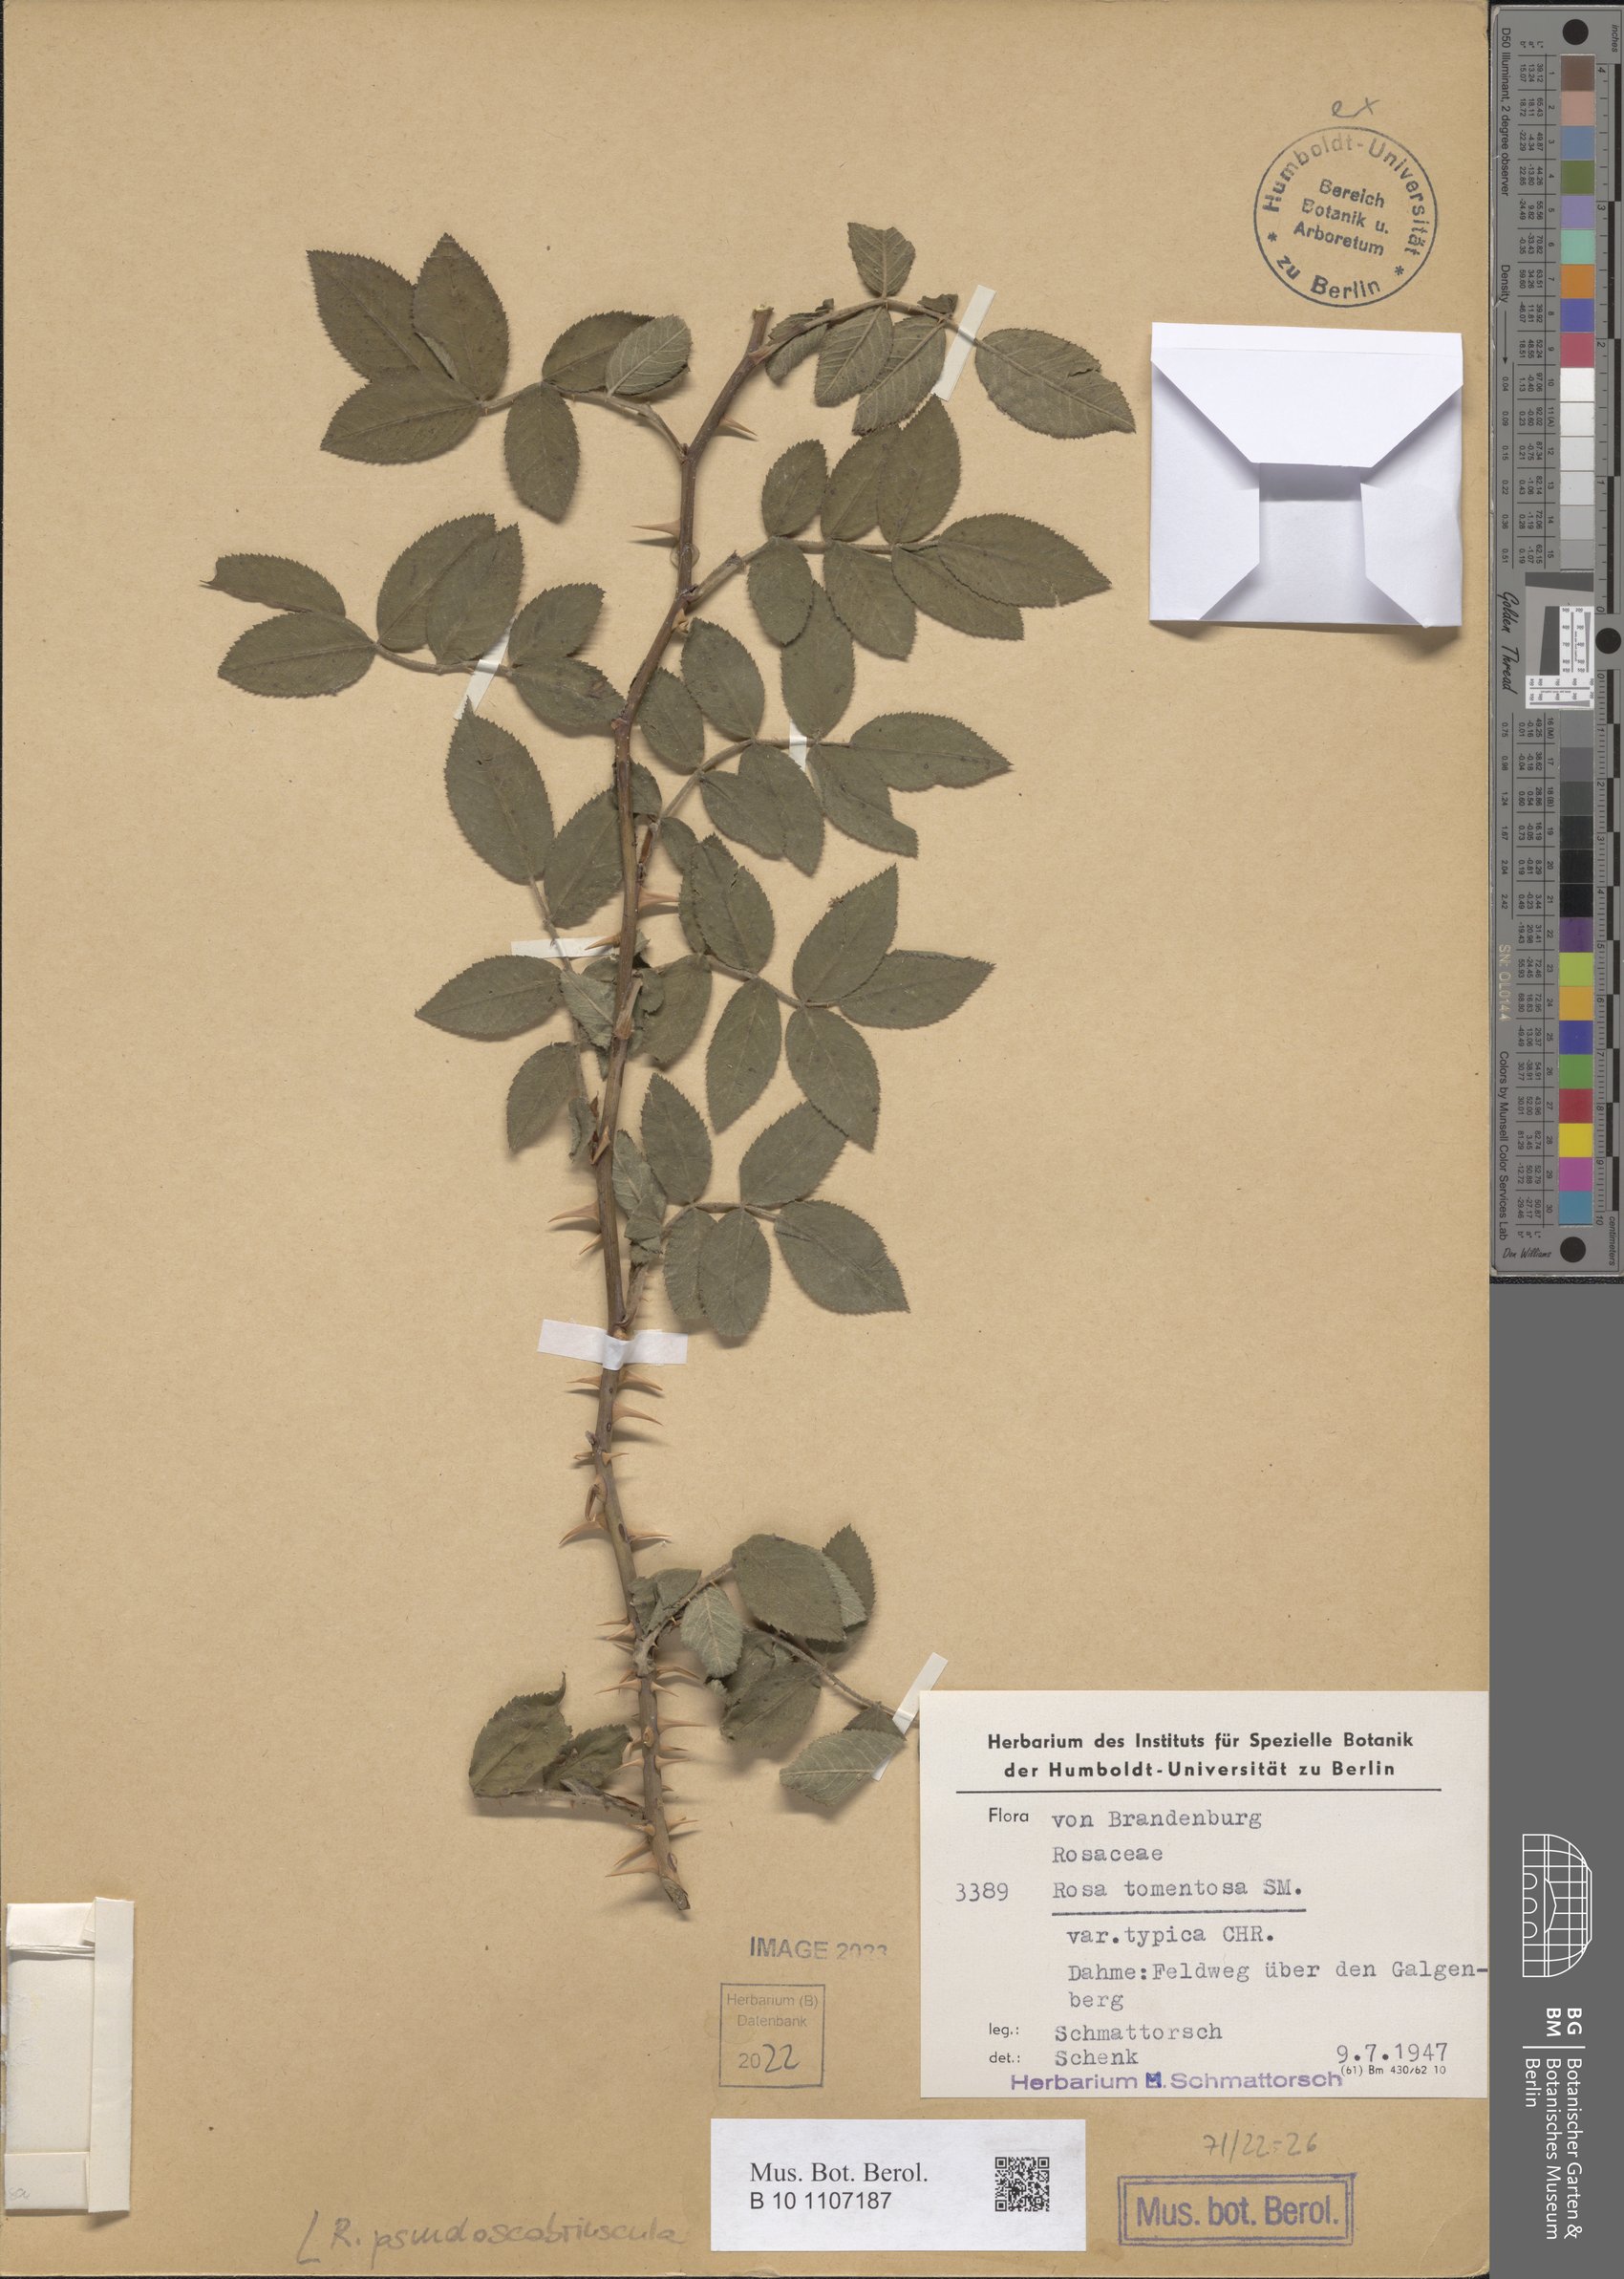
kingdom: Plantae
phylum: Tracheophyta
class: Magnoliopsida
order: Rosales
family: Rosaceae
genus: Rosa
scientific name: Rosa pseudoscabriuscula
